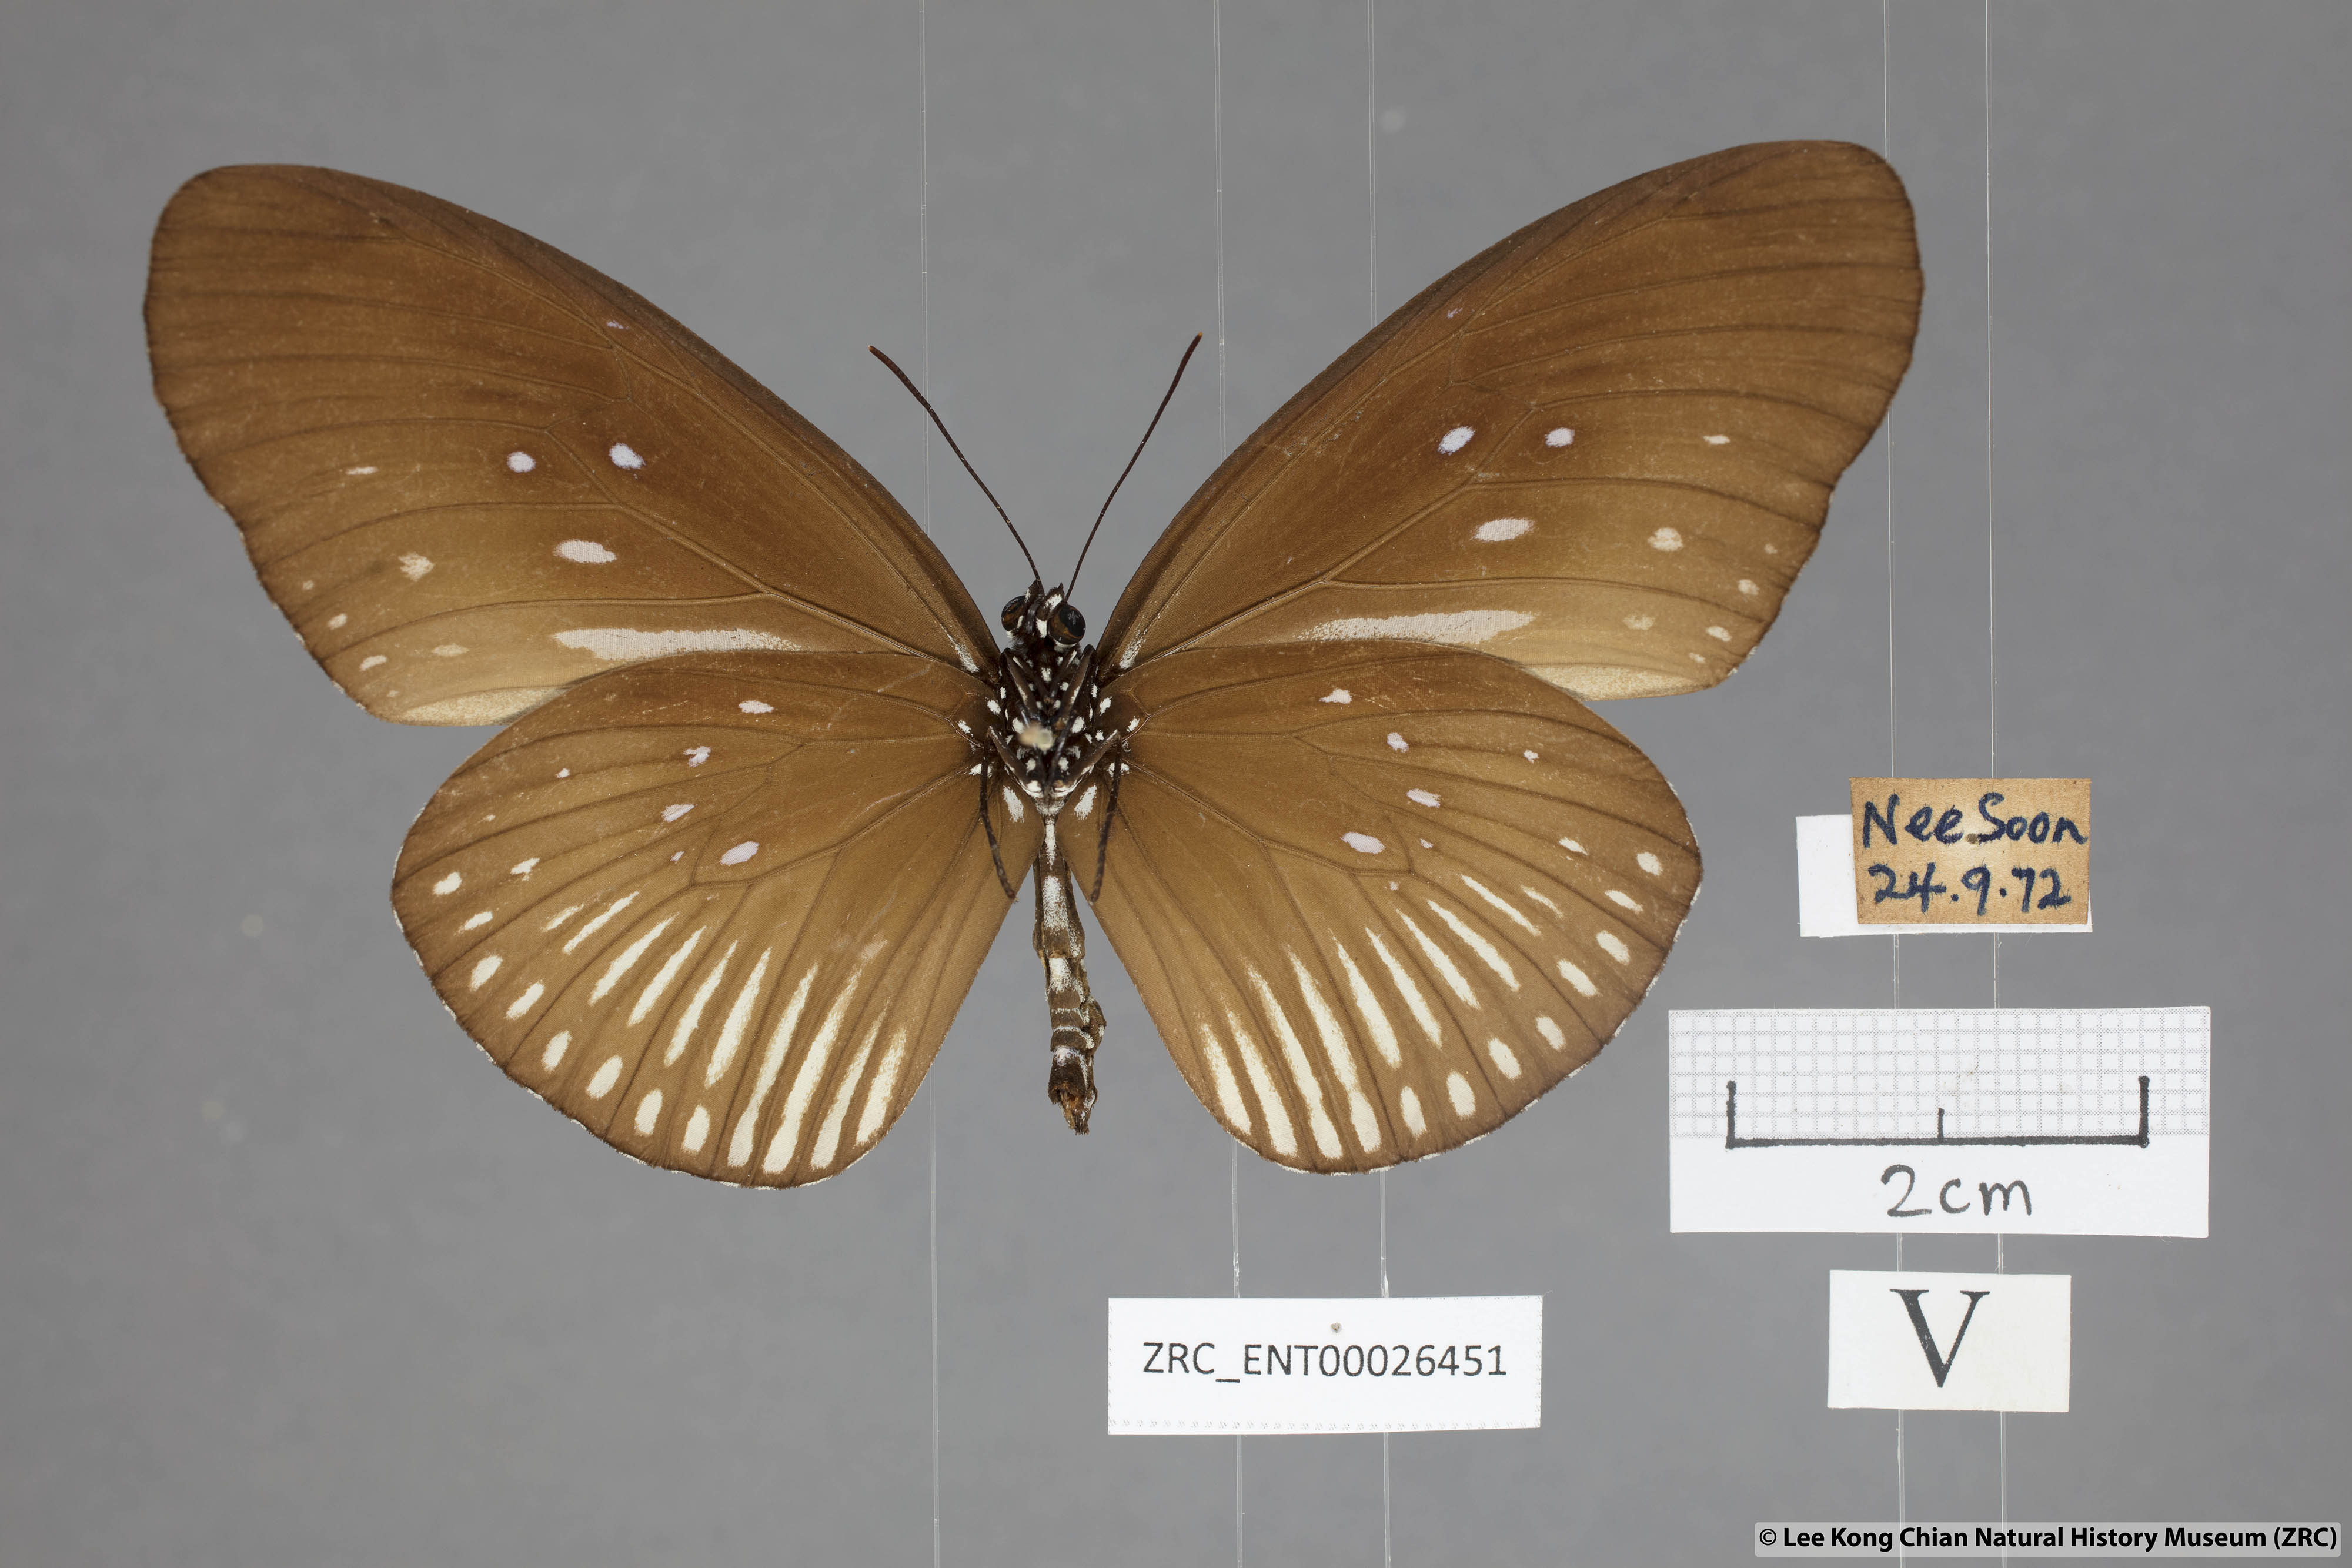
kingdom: Animalia
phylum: Arthropoda
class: Insecta
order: Lepidoptera
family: Nymphalidae
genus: Euploea
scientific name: Euploea eyndhovii
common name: Striped black crow butterfly
